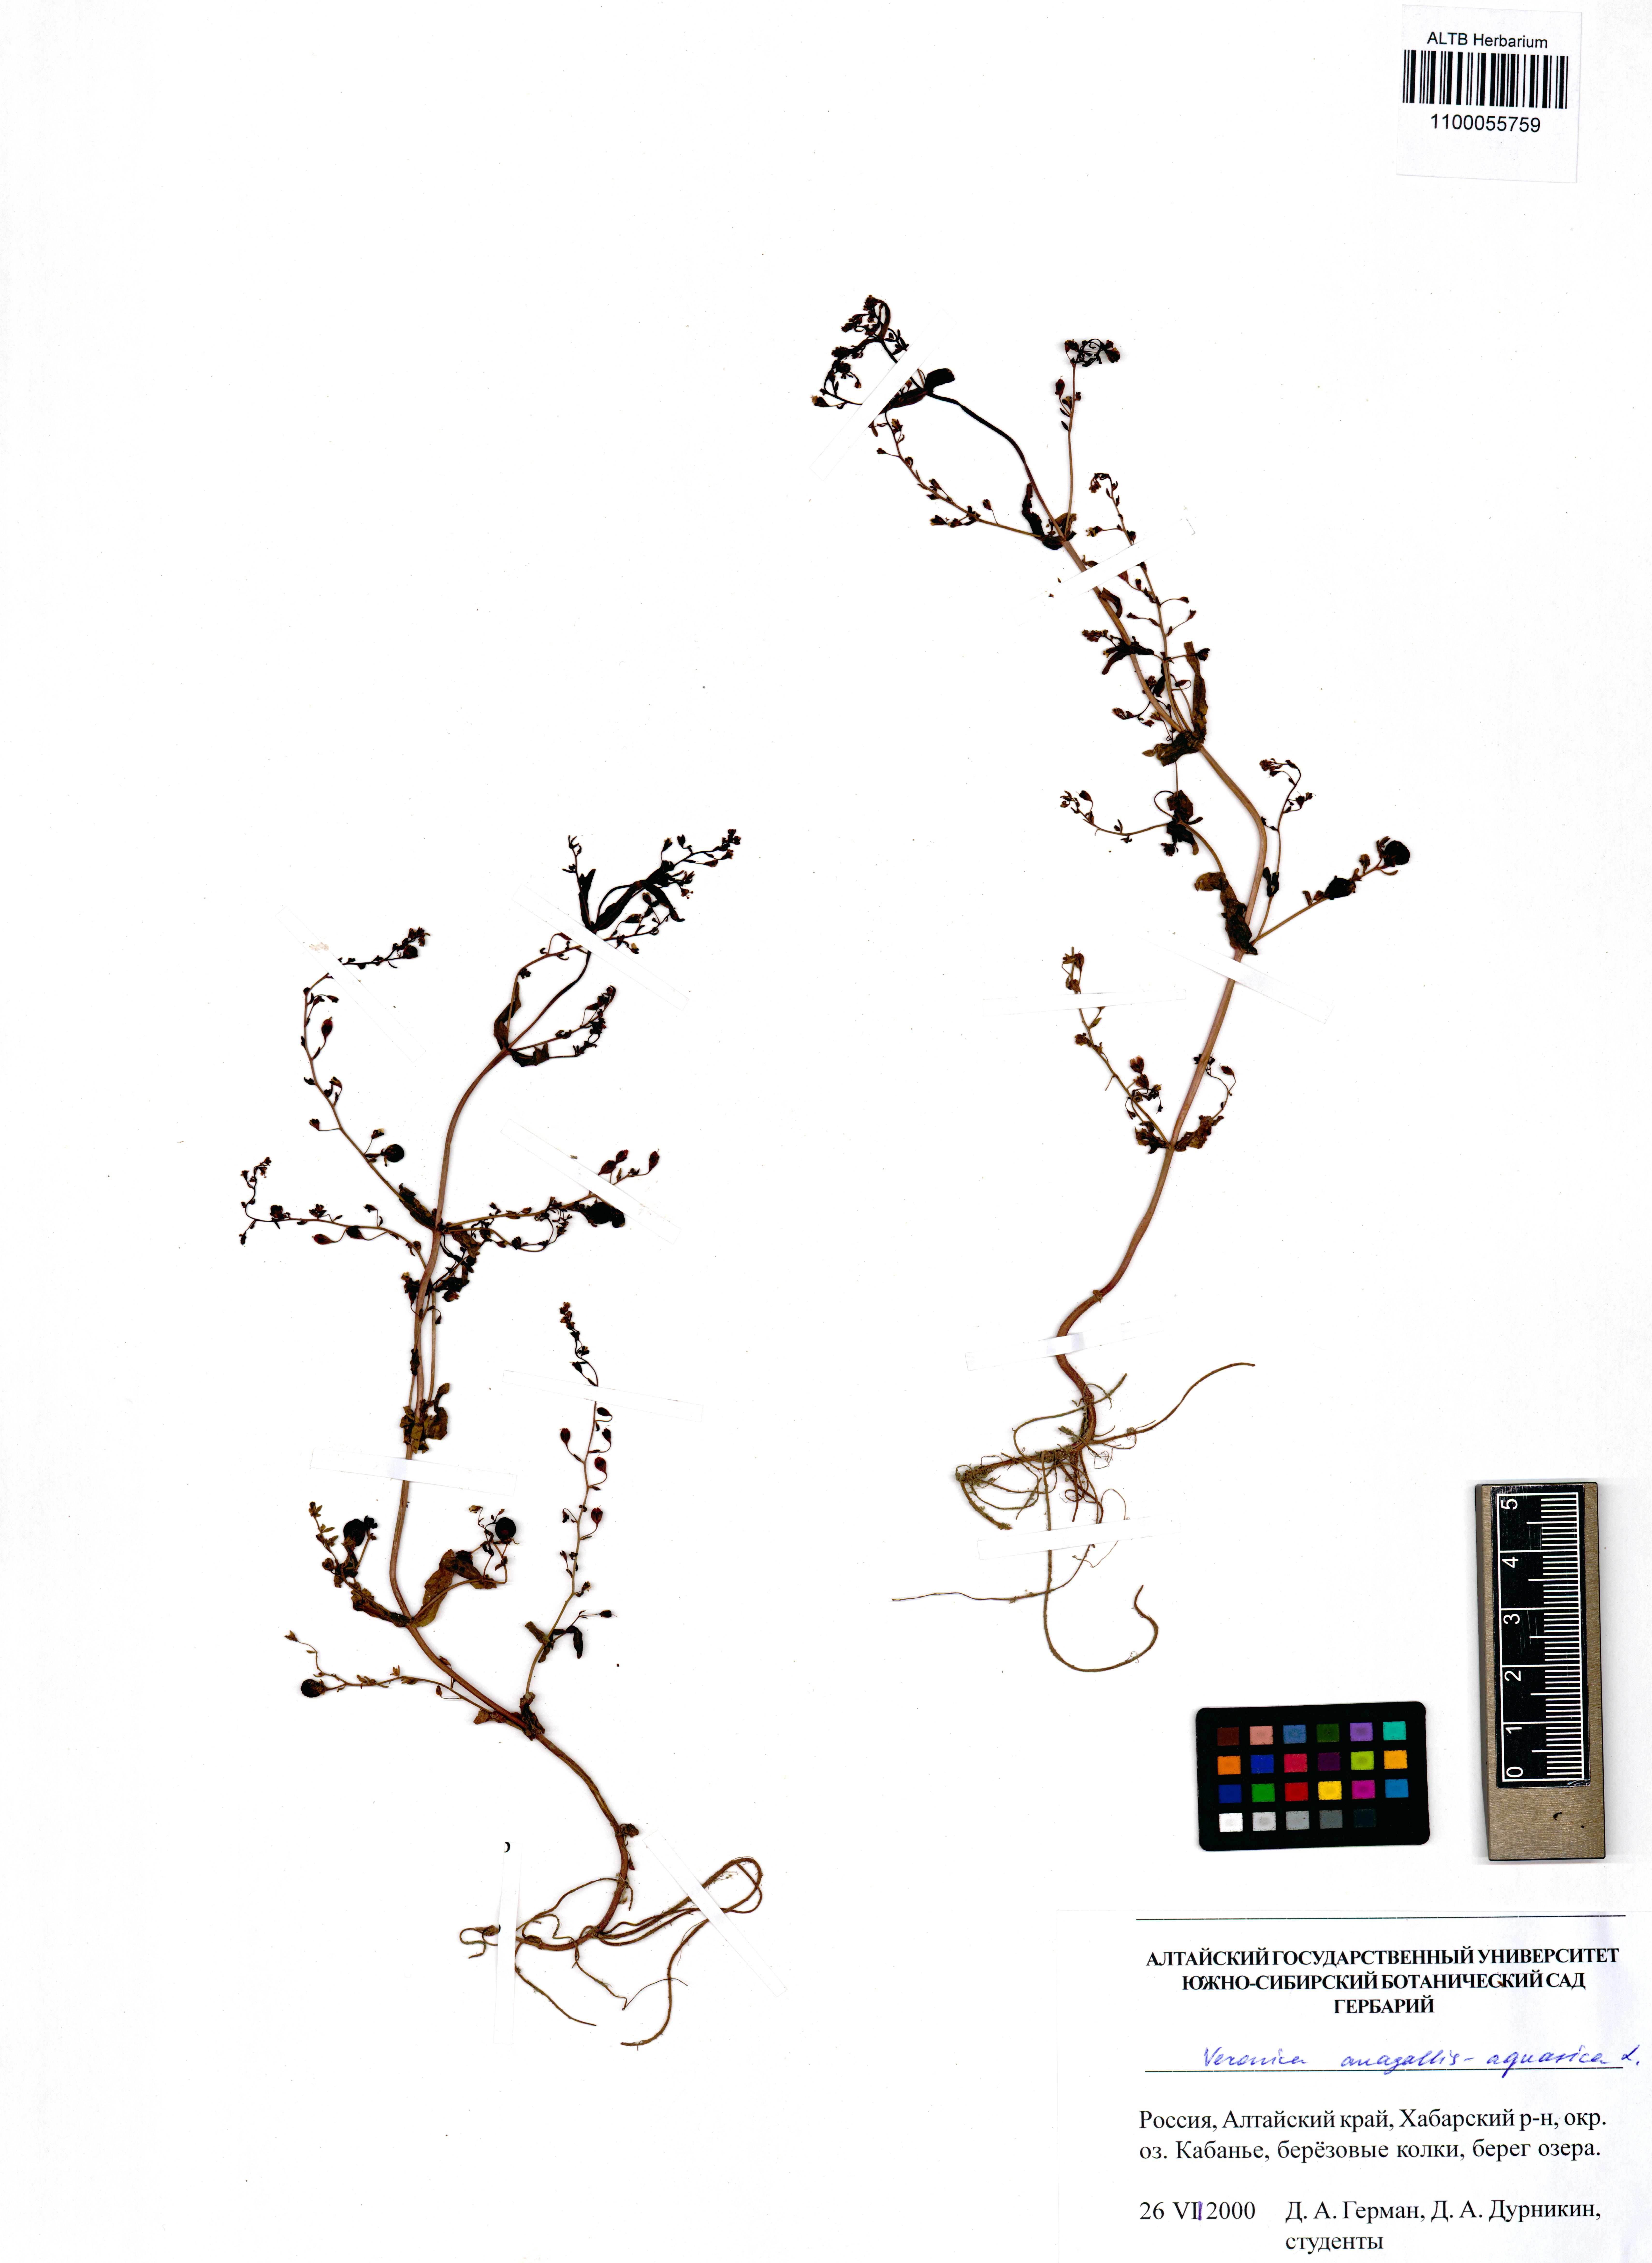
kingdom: Plantae
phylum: Tracheophyta
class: Magnoliopsida
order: Lamiales
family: Plantaginaceae
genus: Veronica
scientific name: Veronica anagallis-aquatica
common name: Water speedwell
